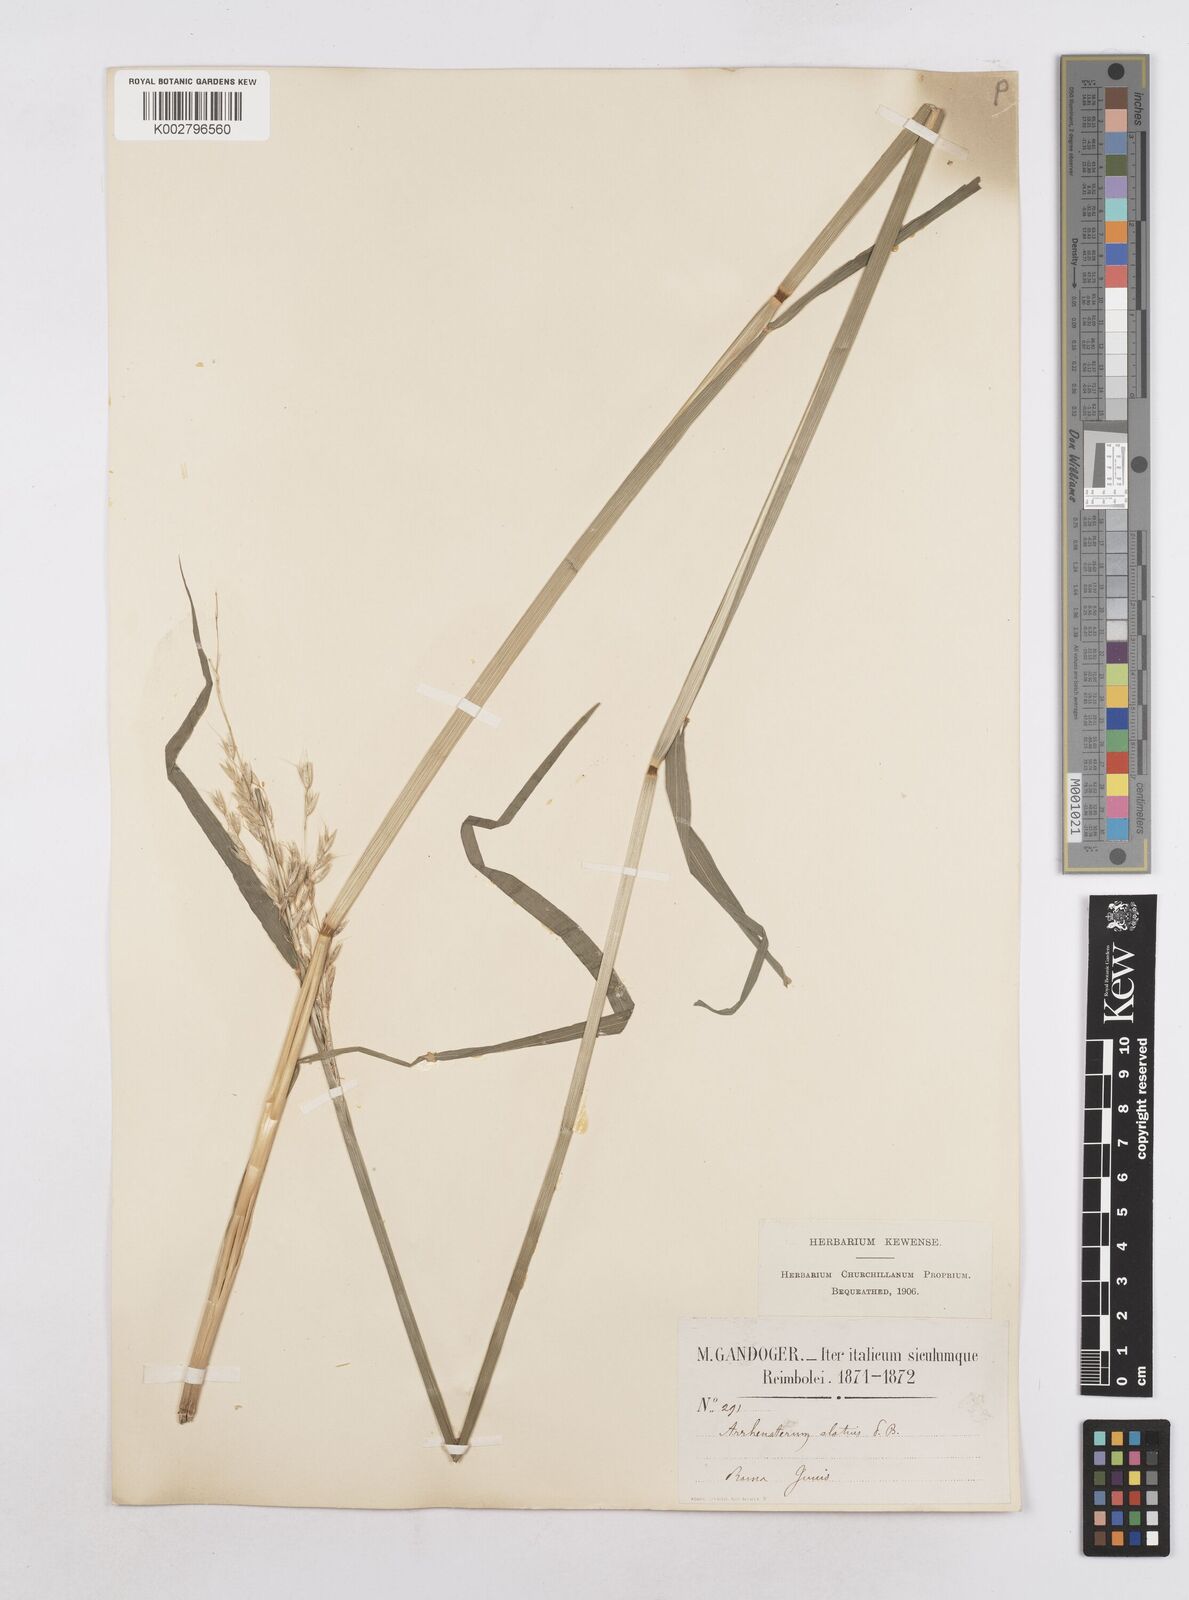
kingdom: Plantae
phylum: Tracheophyta
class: Liliopsida
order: Poales
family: Poaceae
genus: Arrhenatherum
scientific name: Arrhenatherum elatius
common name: Tall oatgrass
